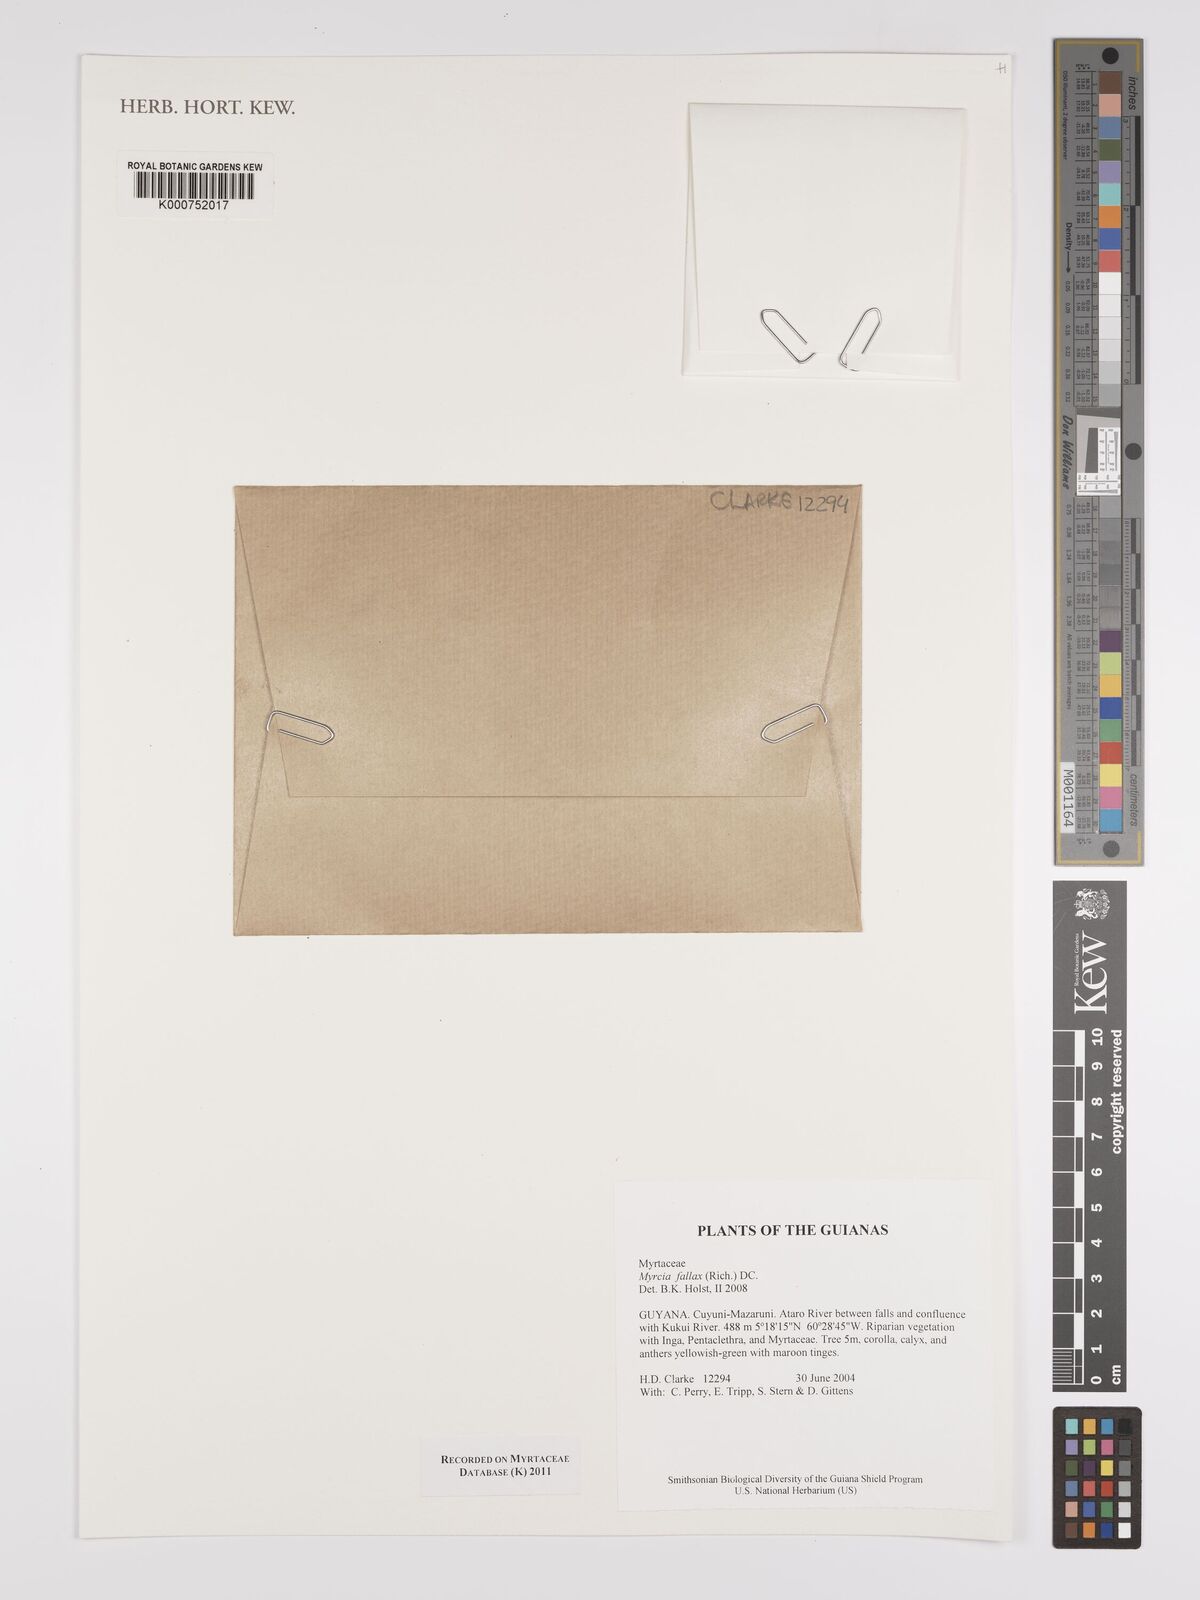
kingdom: Plantae
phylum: Tracheophyta
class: Magnoliopsida
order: Myrtales
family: Myrtaceae
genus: Myrcia
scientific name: Myrcia splendens
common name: Surinam cherry
